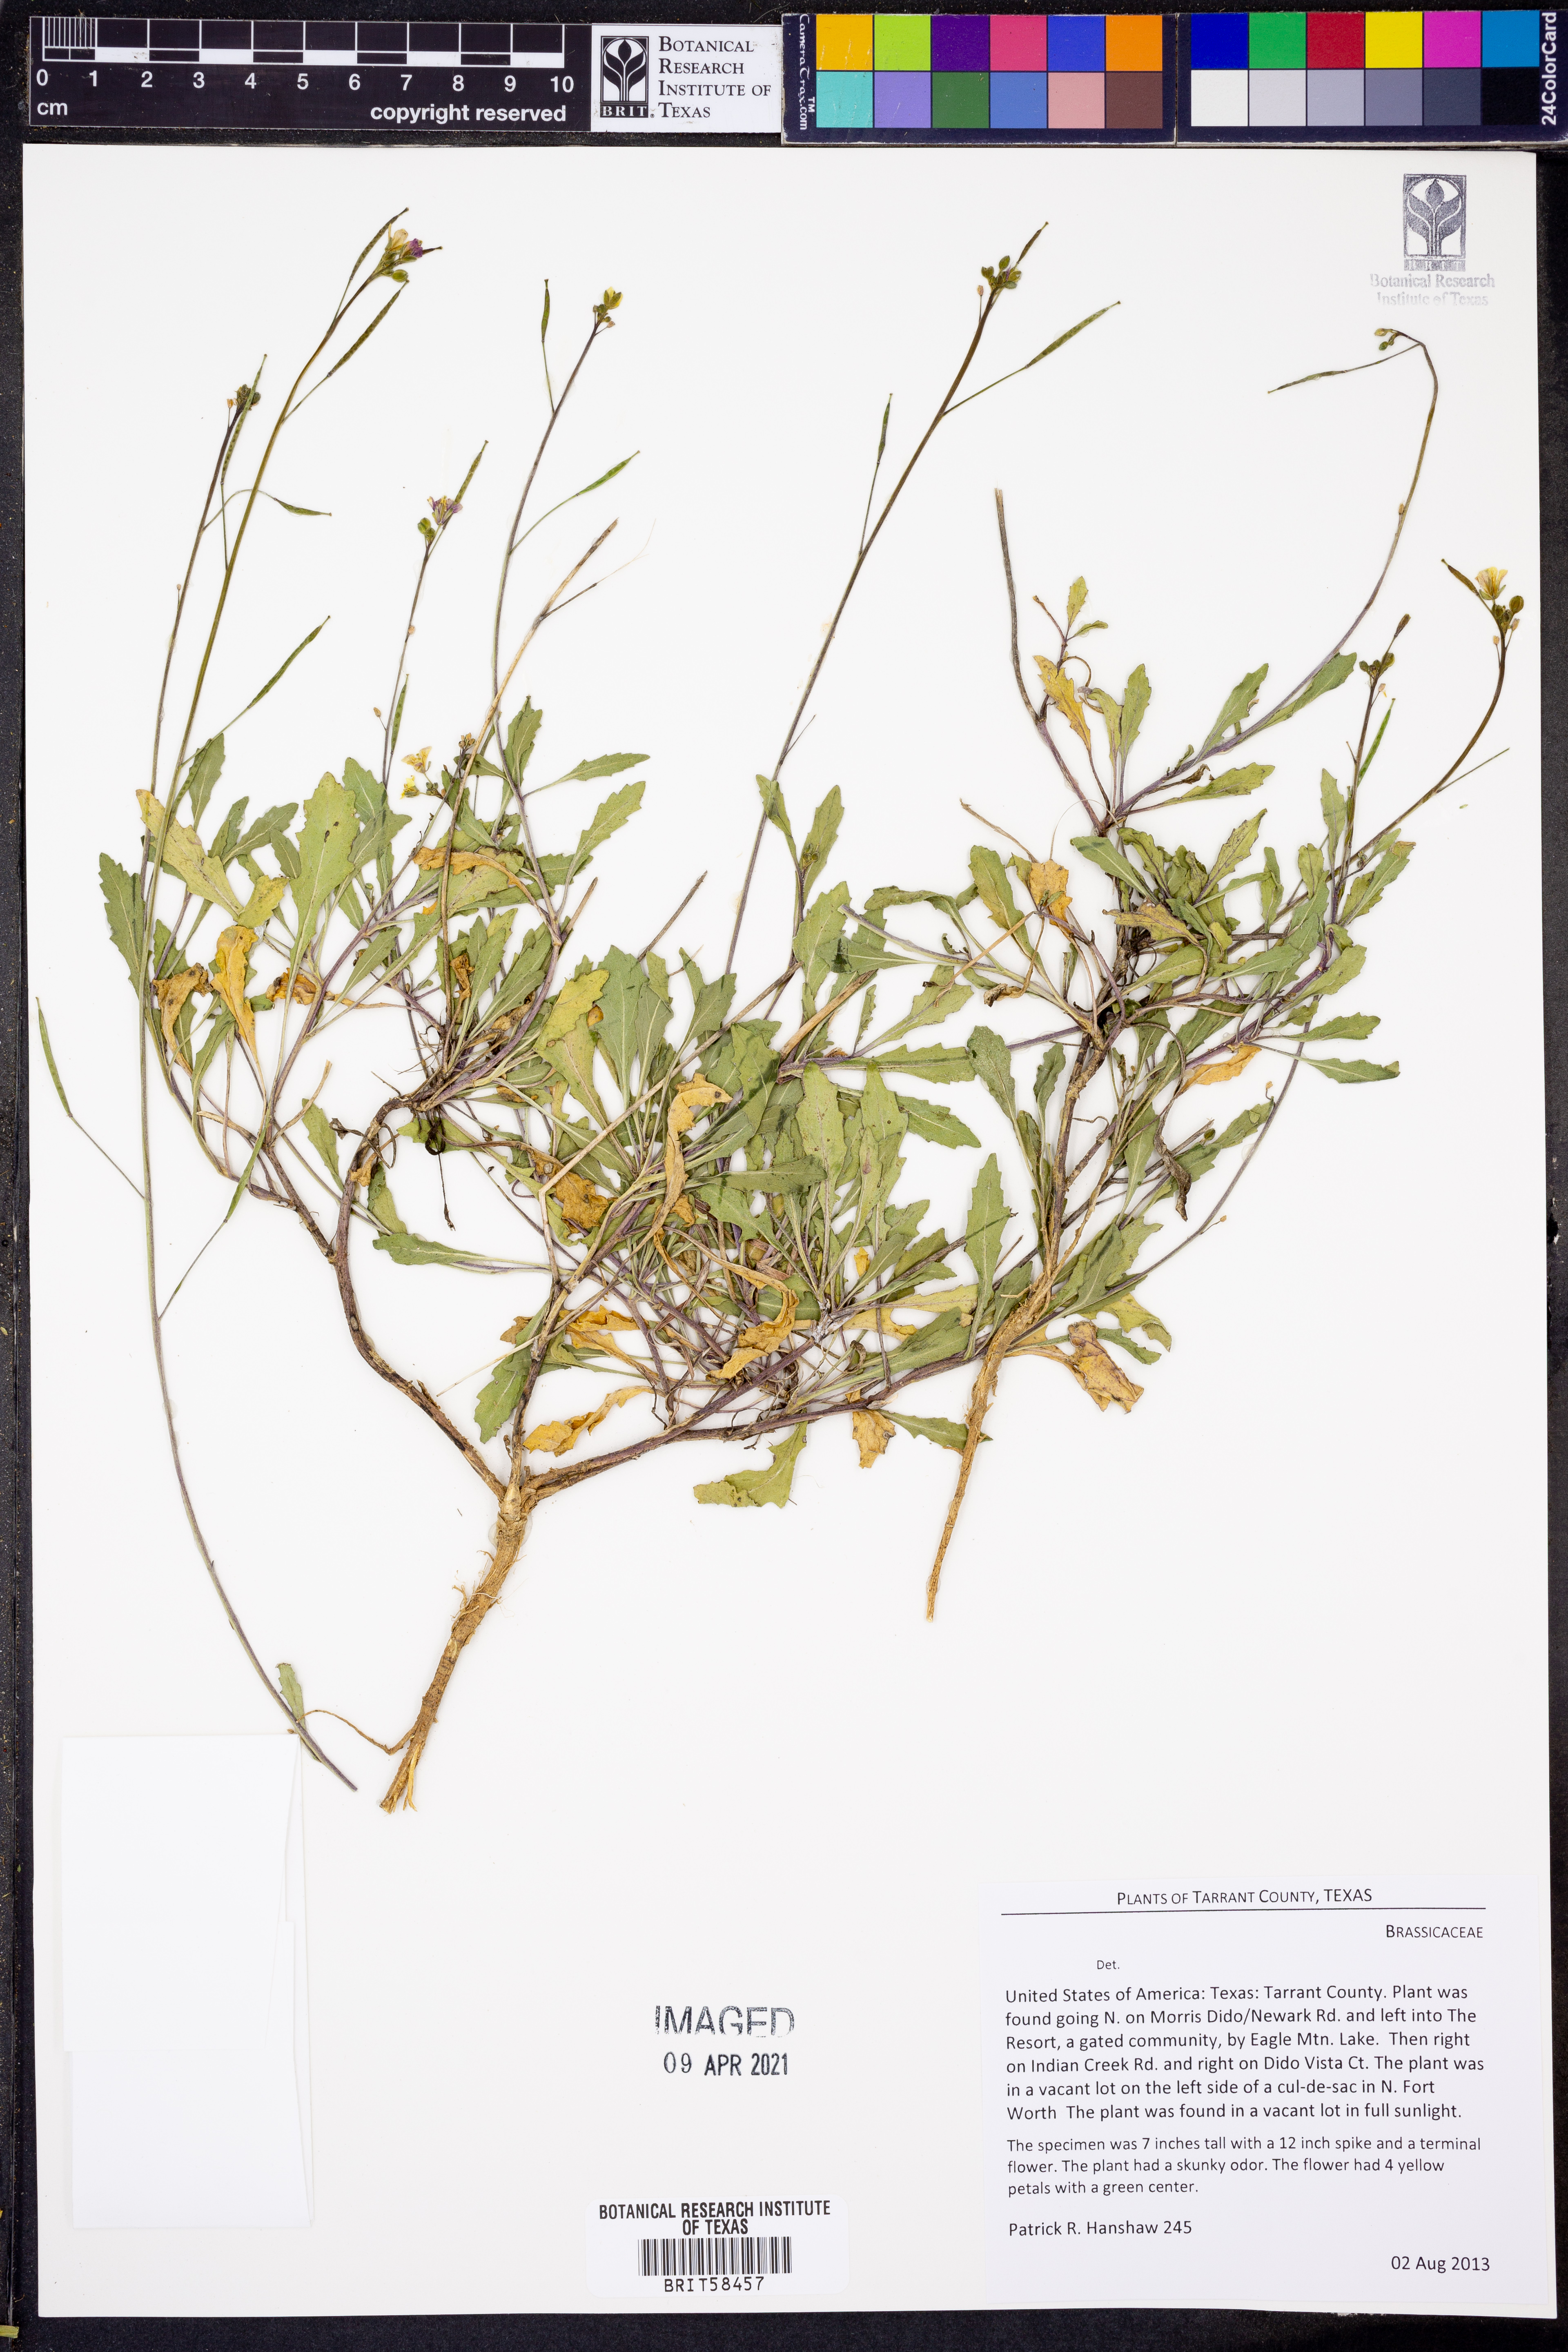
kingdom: Plantae
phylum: Tracheophyta
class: Magnoliopsida
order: Brassicales
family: Brassicaceae
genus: Diplotaxis
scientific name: Diplotaxis
